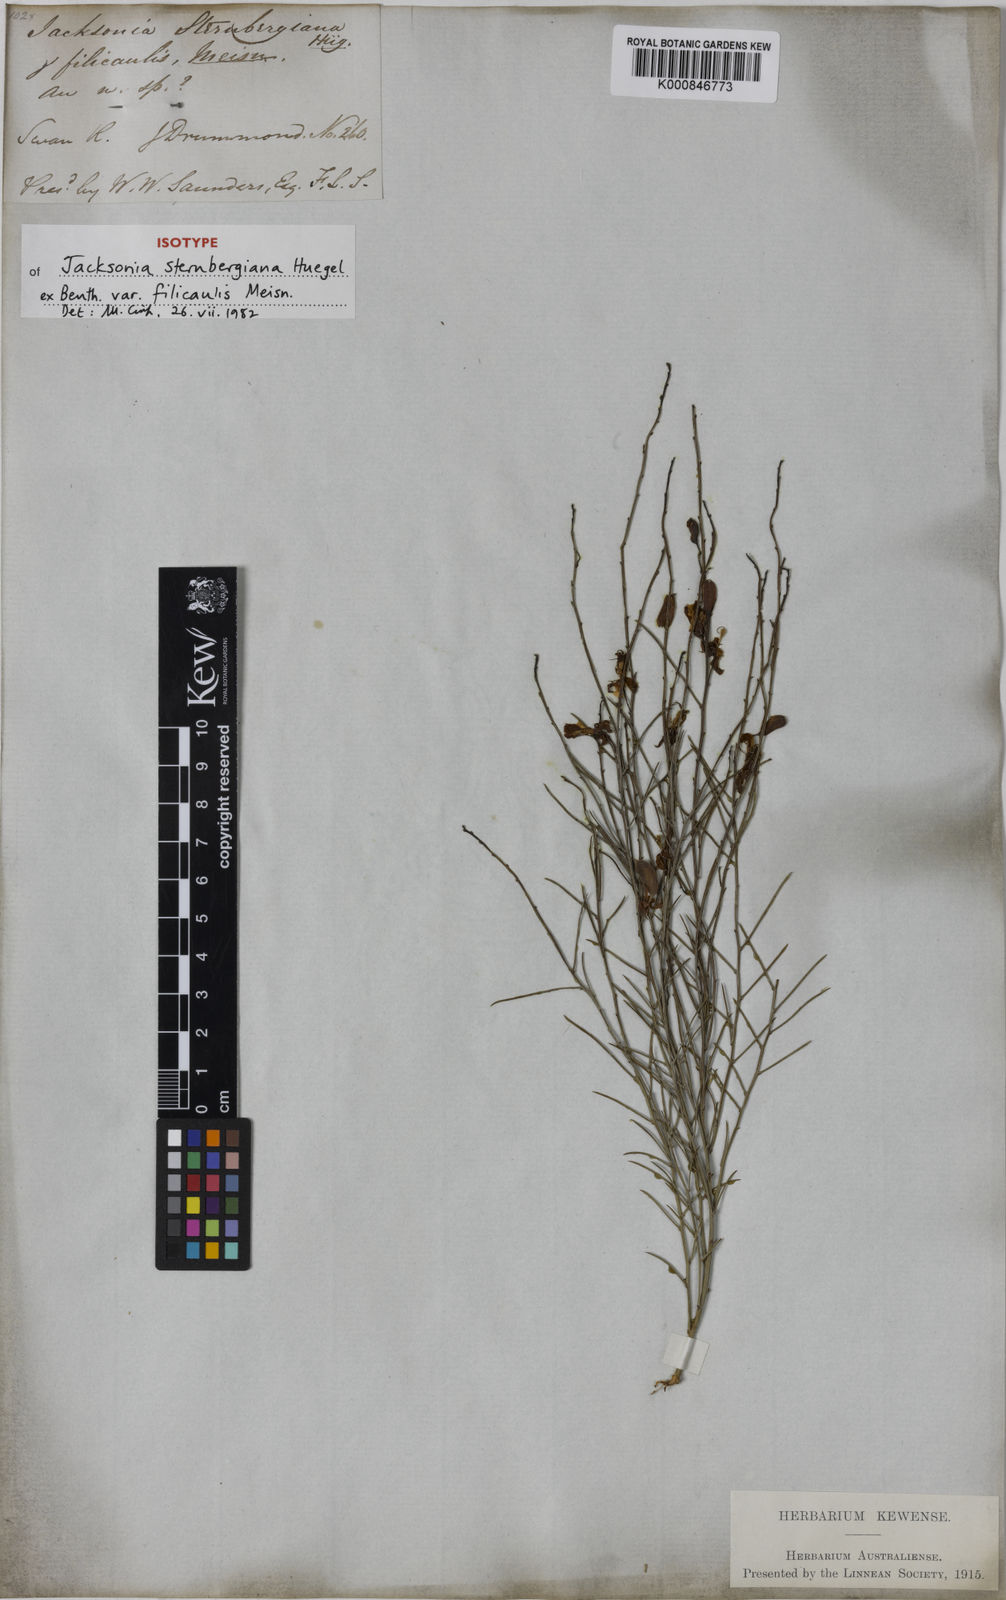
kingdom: Plantae
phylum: Tracheophyta
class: Magnoliopsida
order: Fabales
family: Fabaceae
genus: Jacksonia
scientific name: Jacksonia
